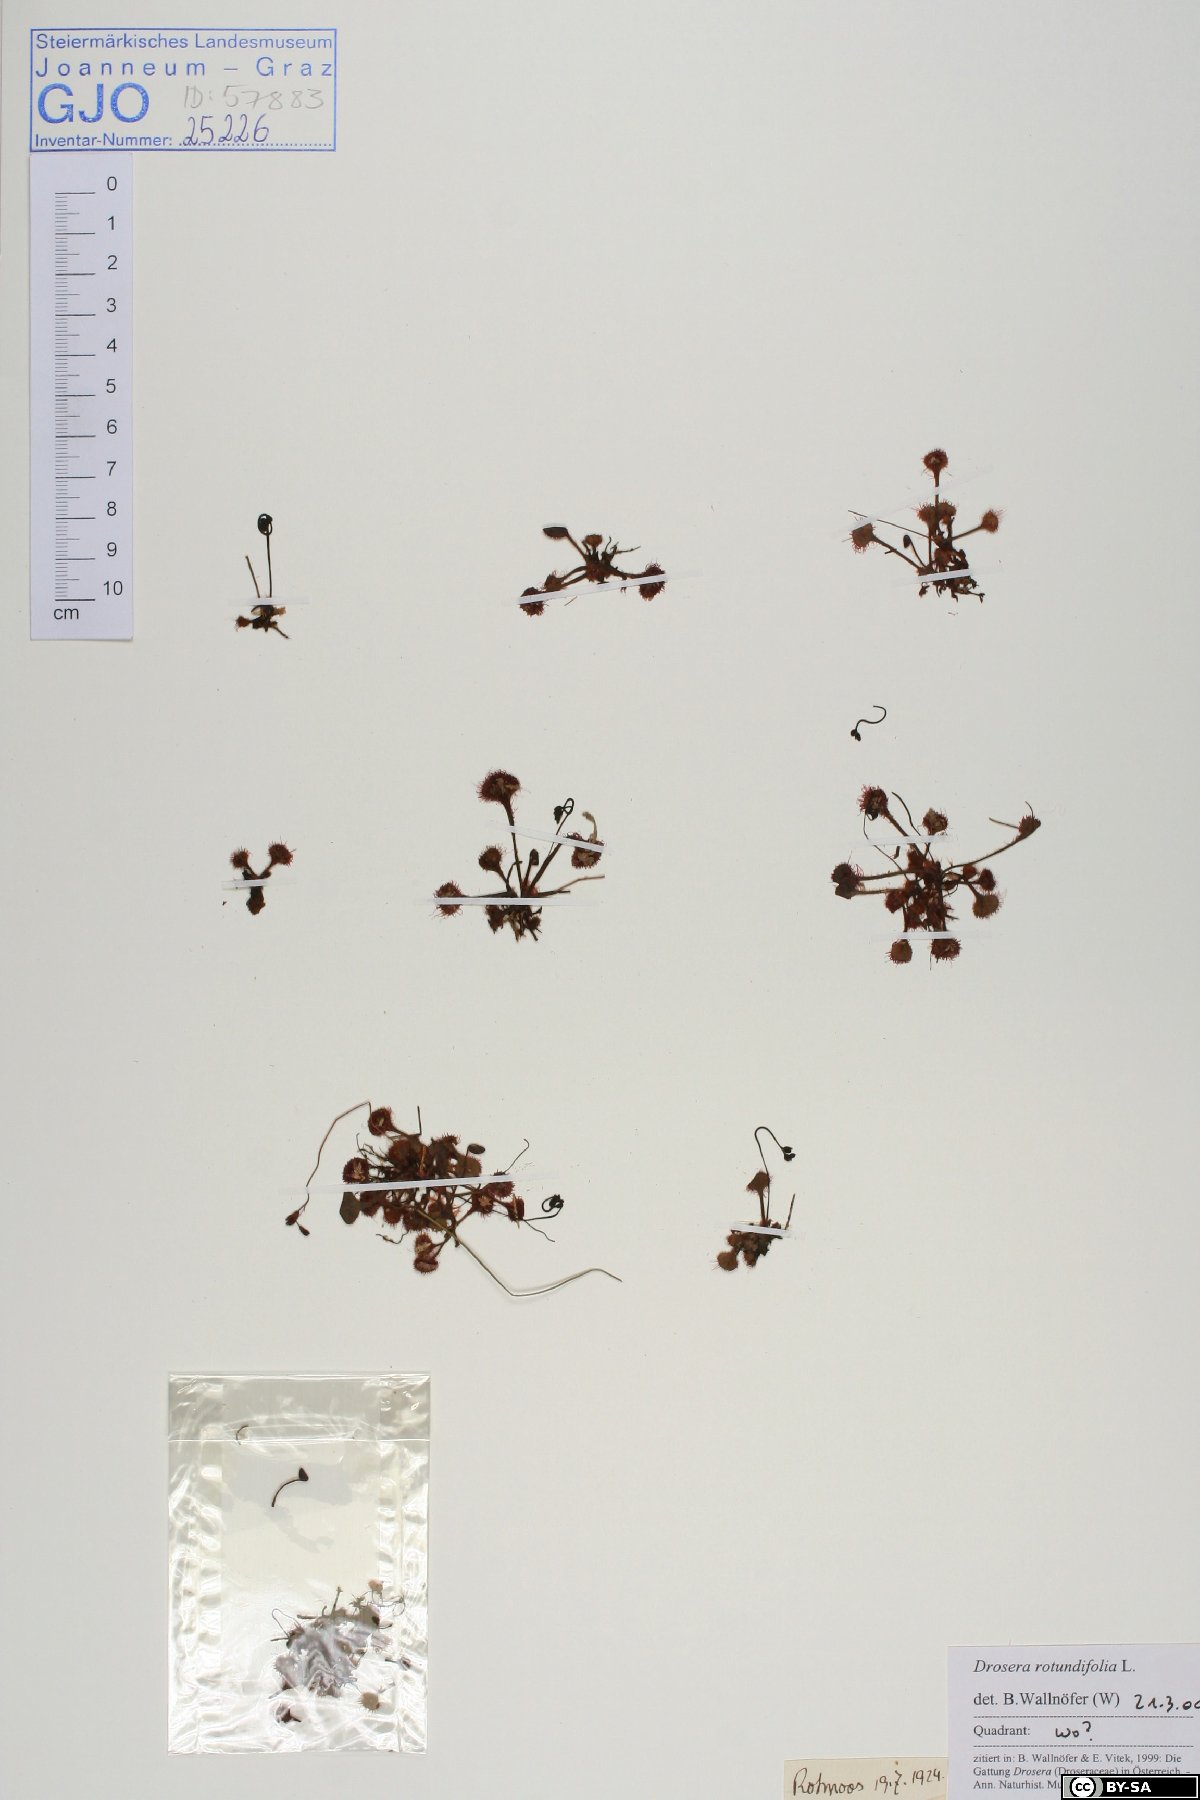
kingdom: Plantae
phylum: Tracheophyta
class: Magnoliopsida
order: Caryophyllales
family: Droseraceae
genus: Drosera
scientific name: Drosera rotundifolia
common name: Round-leaved sundew
